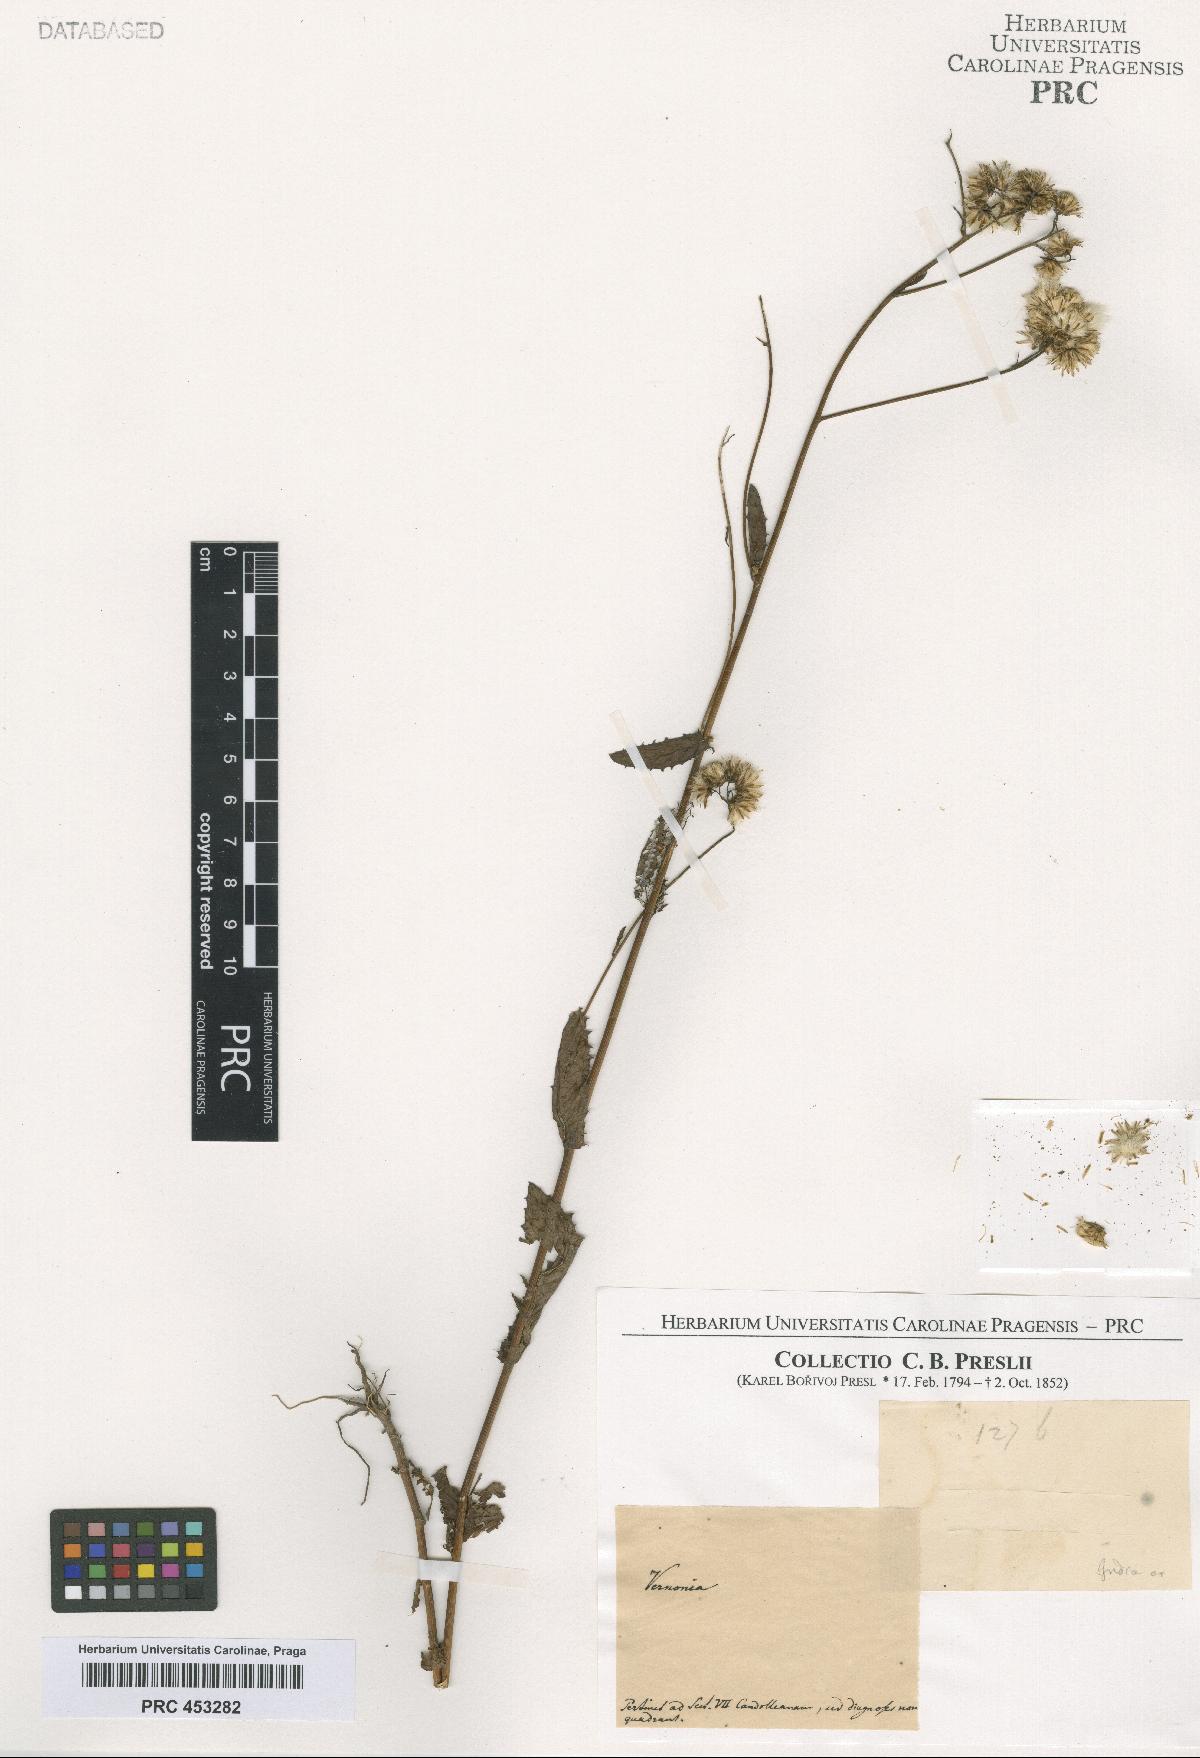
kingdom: Plantae
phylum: Tracheophyta
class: Magnoliopsida
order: Asterales
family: Asteraceae
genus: Vernonia
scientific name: Vernonia
